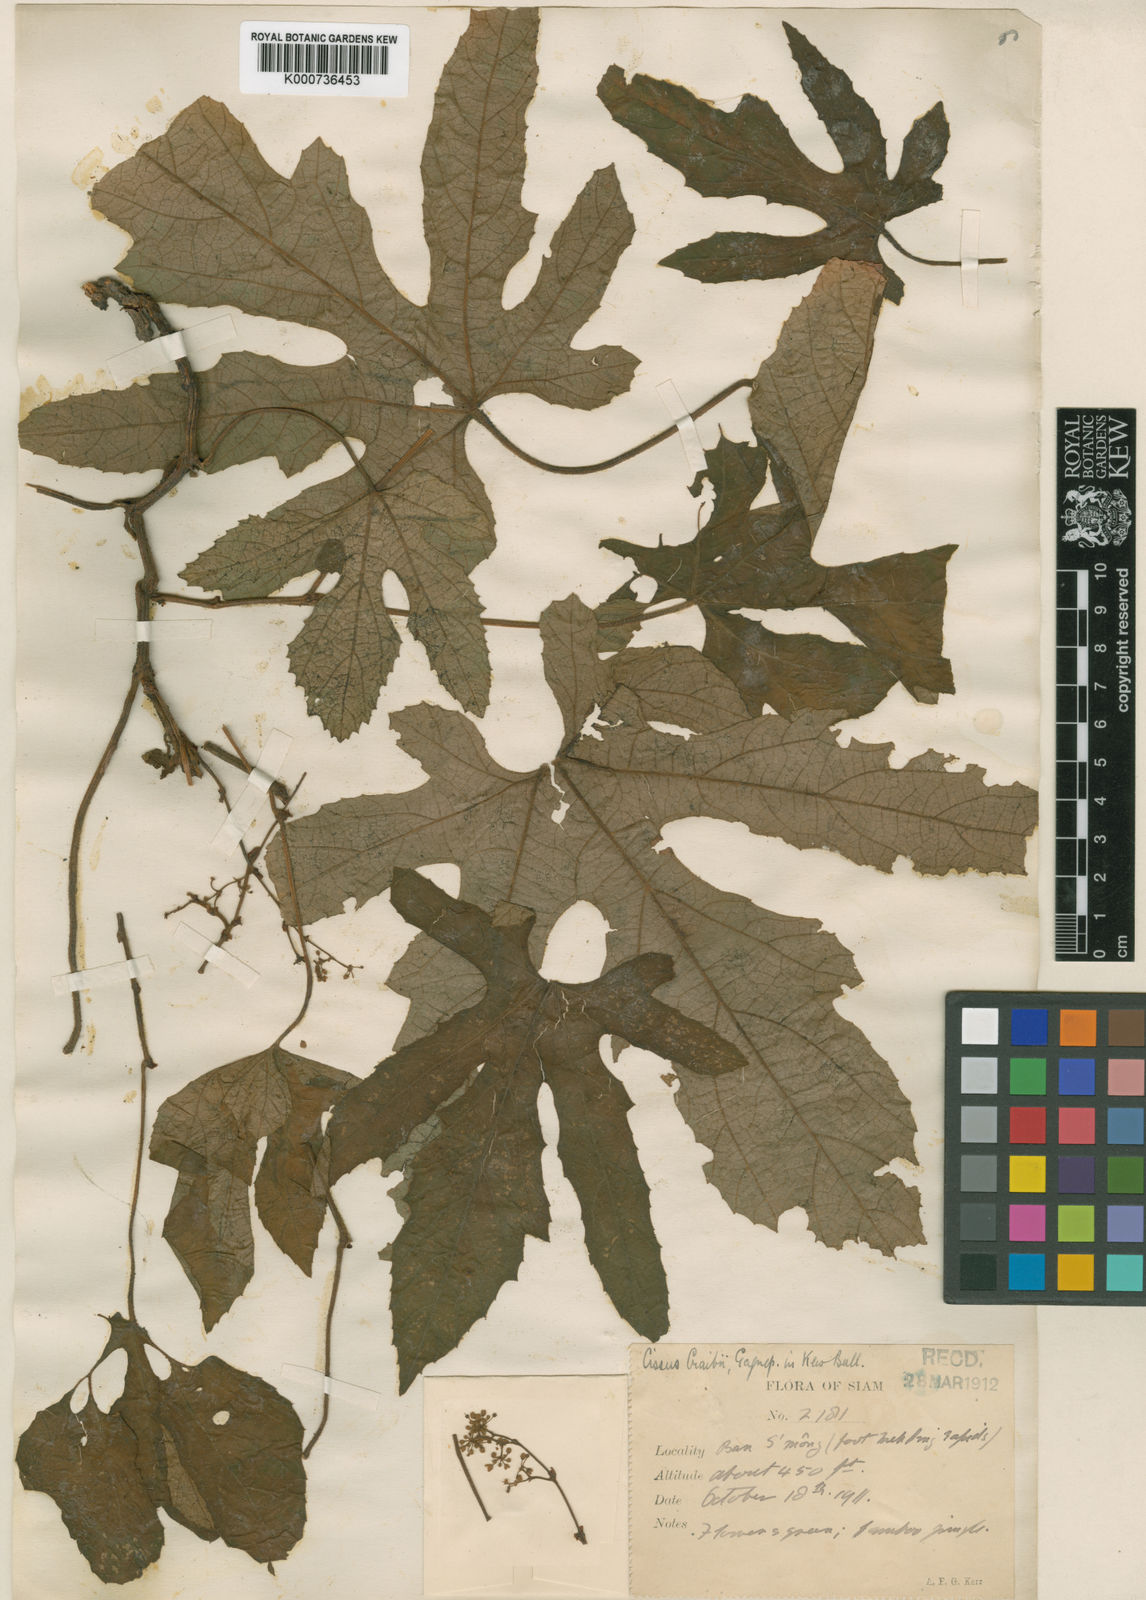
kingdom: Plantae
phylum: Tracheophyta
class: Magnoliopsida
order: Vitales
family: Vitaceae
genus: Cissus
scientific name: Cissus craibii
